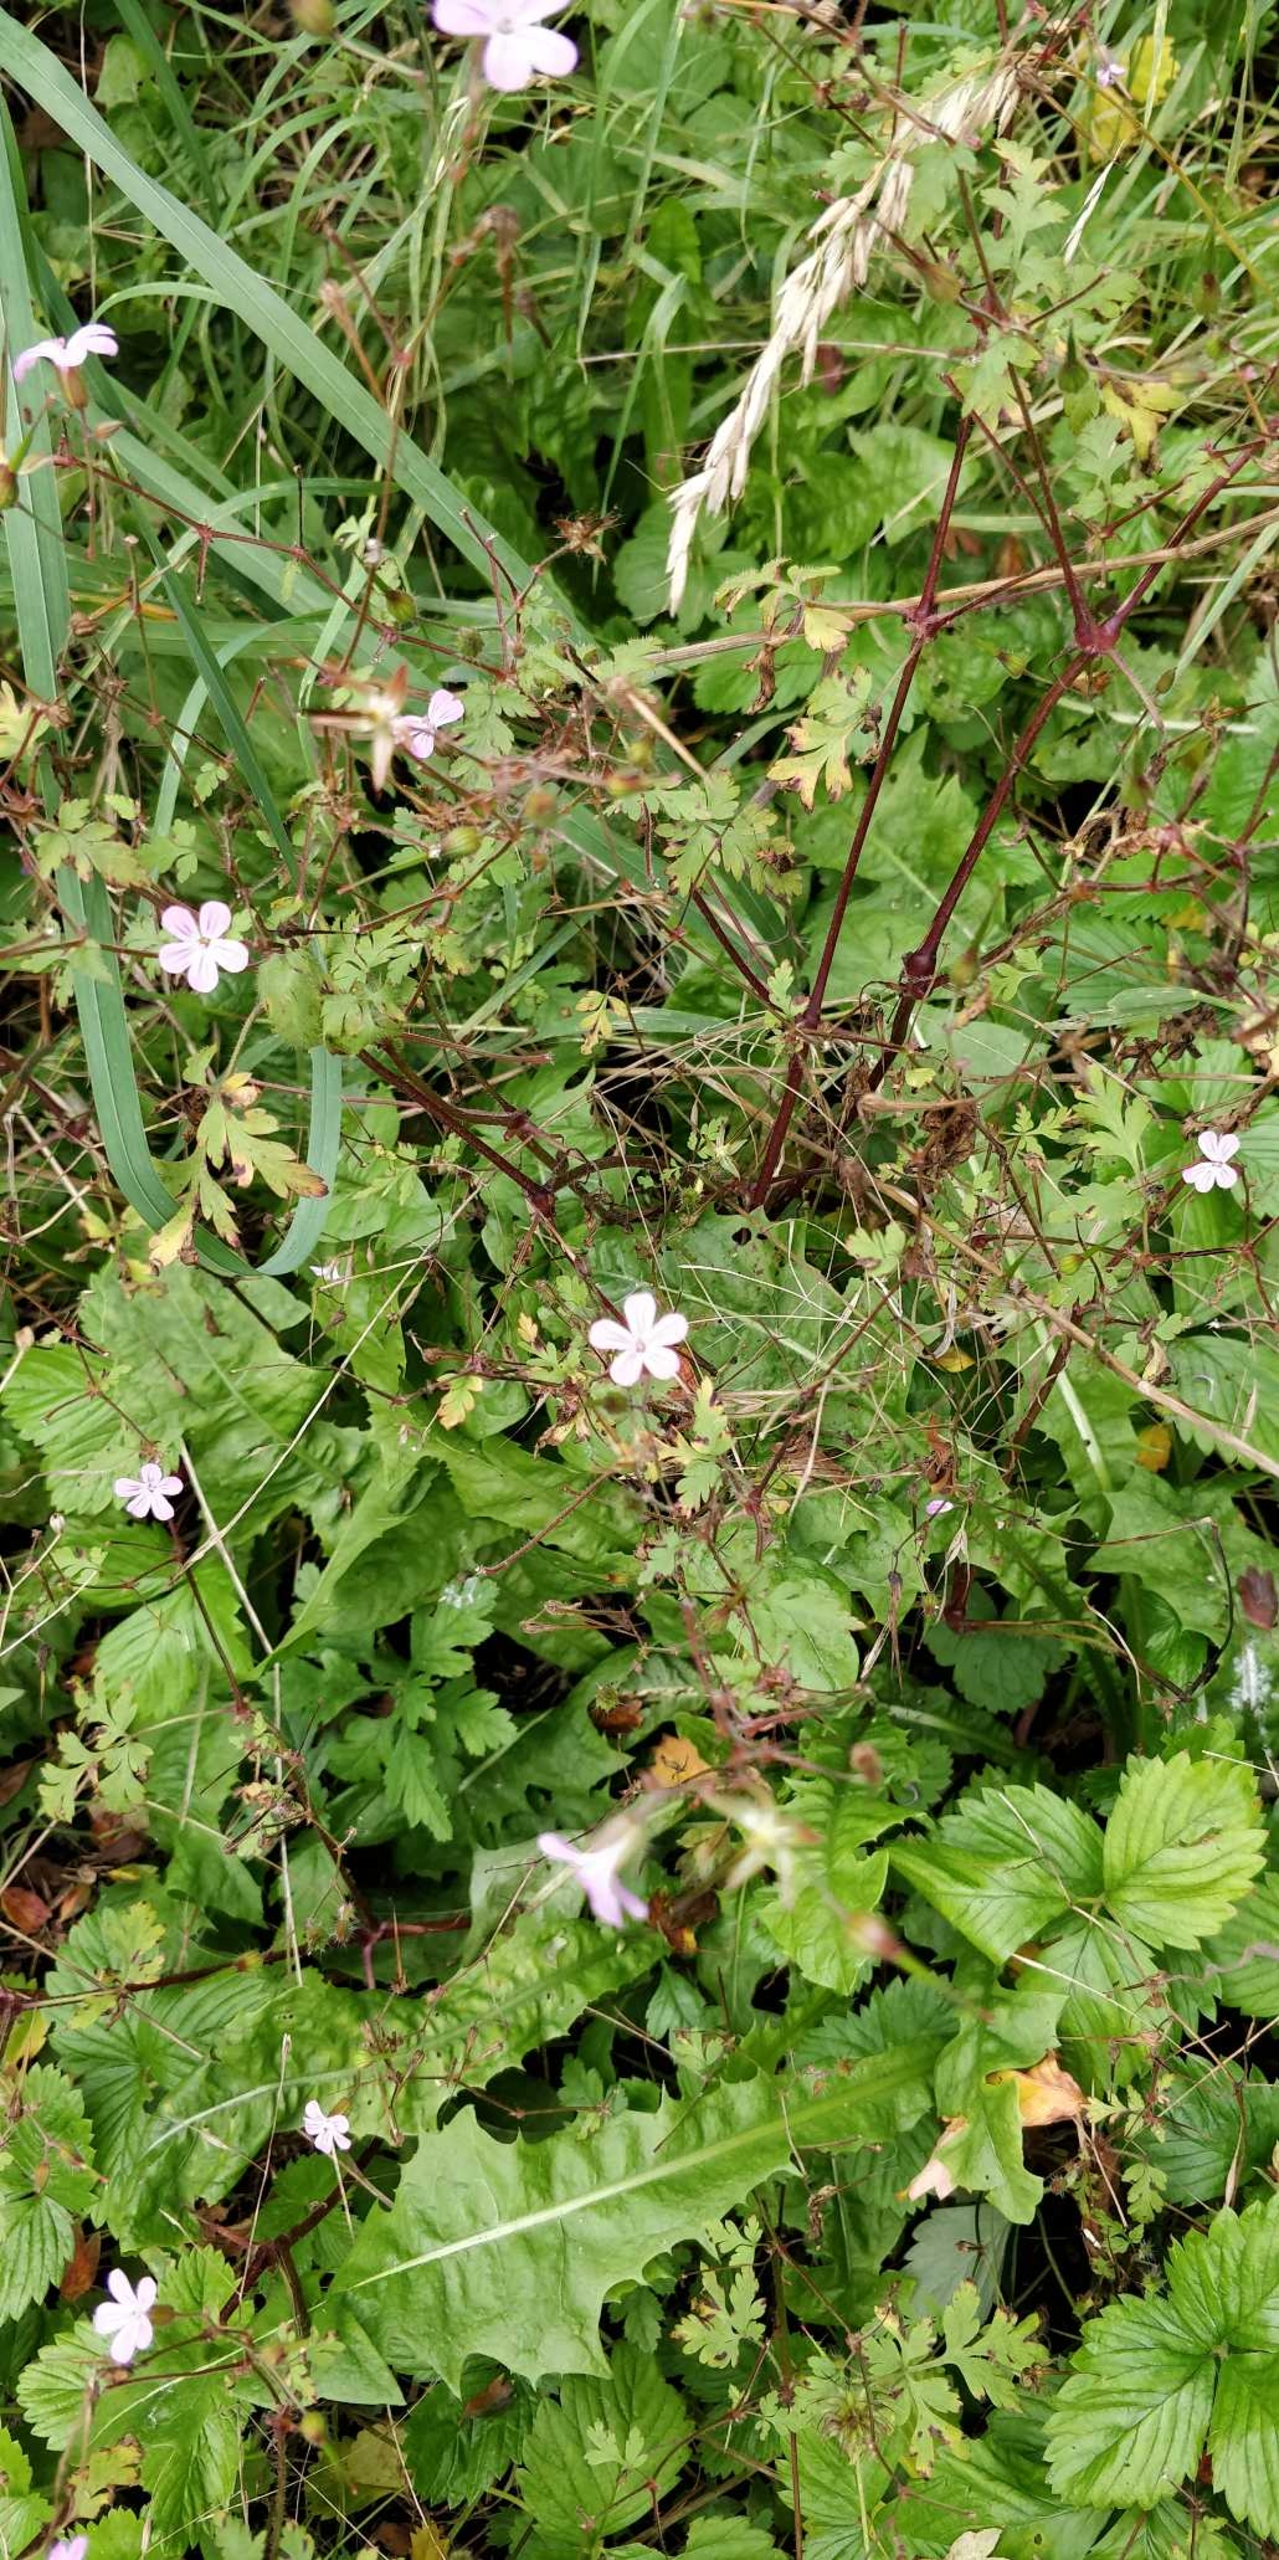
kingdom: Plantae
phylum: Tracheophyta
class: Magnoliopsida
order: Geraniales
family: Geraniaceae
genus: Geranium
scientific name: Geranium robertianum
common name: Stinkende storkenæb
